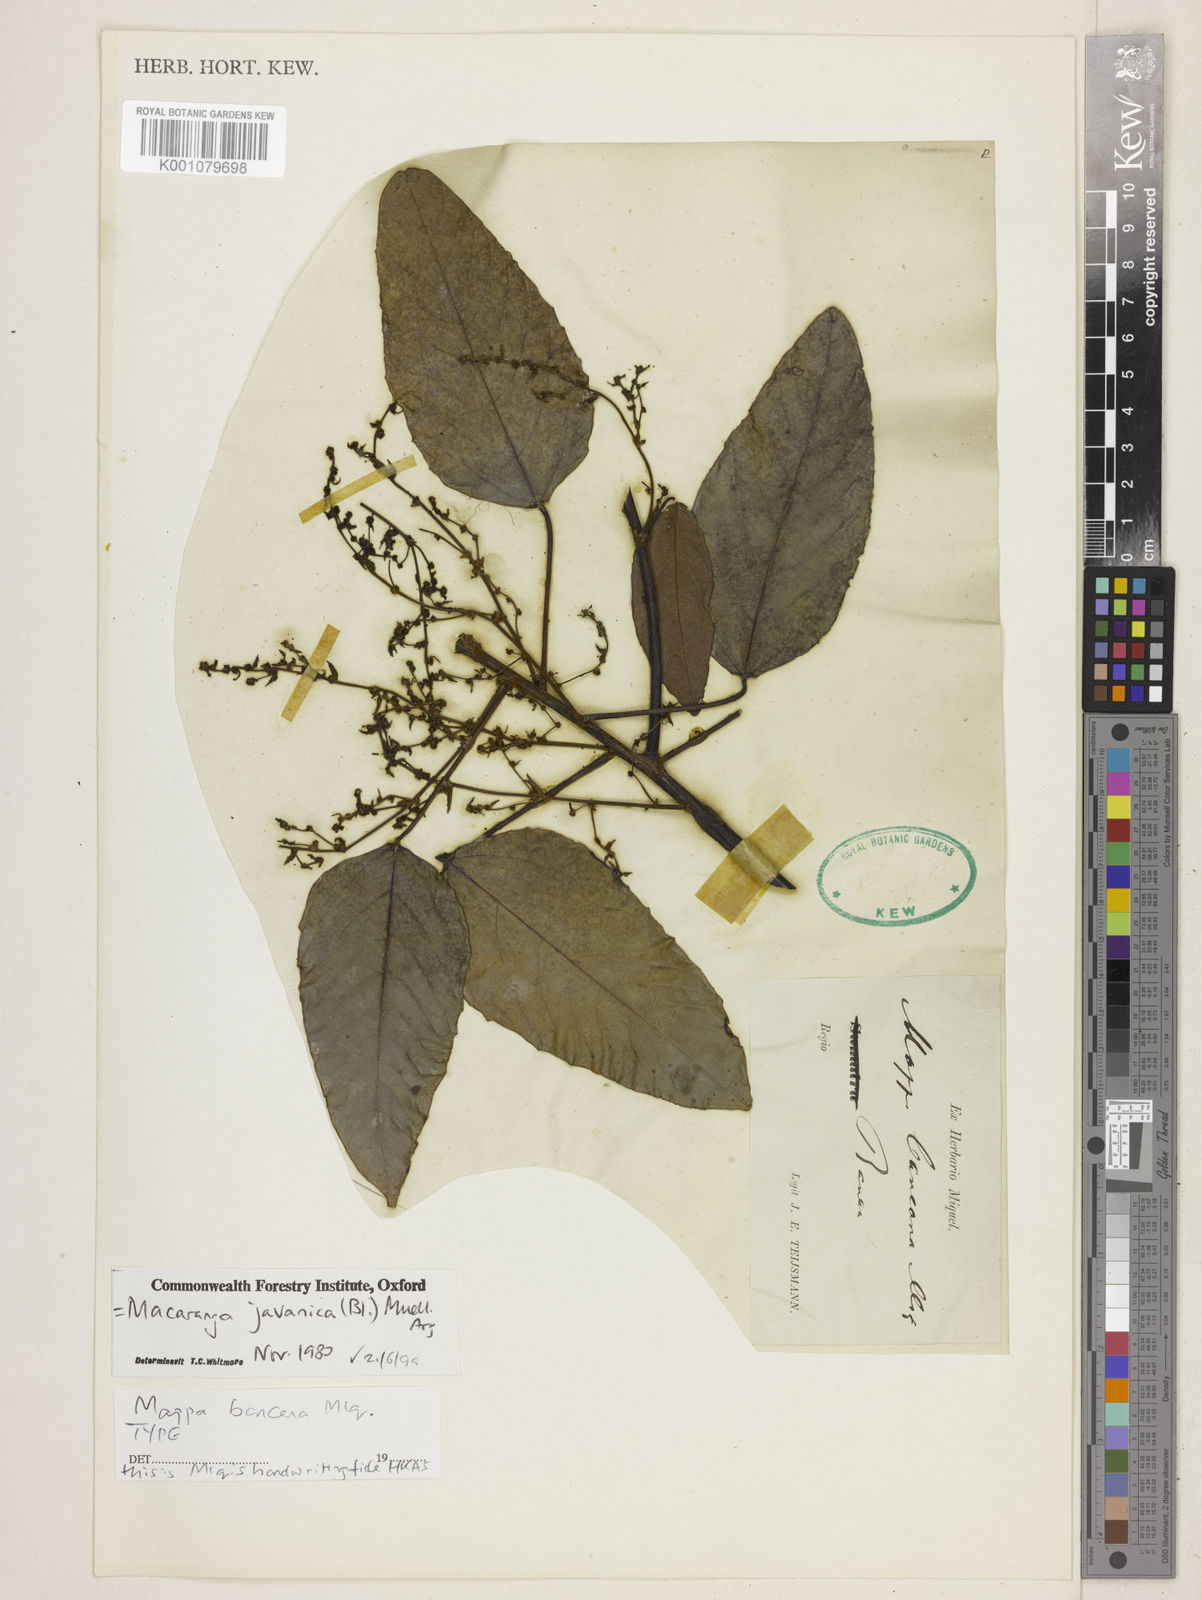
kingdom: Plantae
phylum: Tracheophyta
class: Magnoliopsida
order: Malpighiales
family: Euphorbiaceae
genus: Macaranga
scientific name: Macaranga
